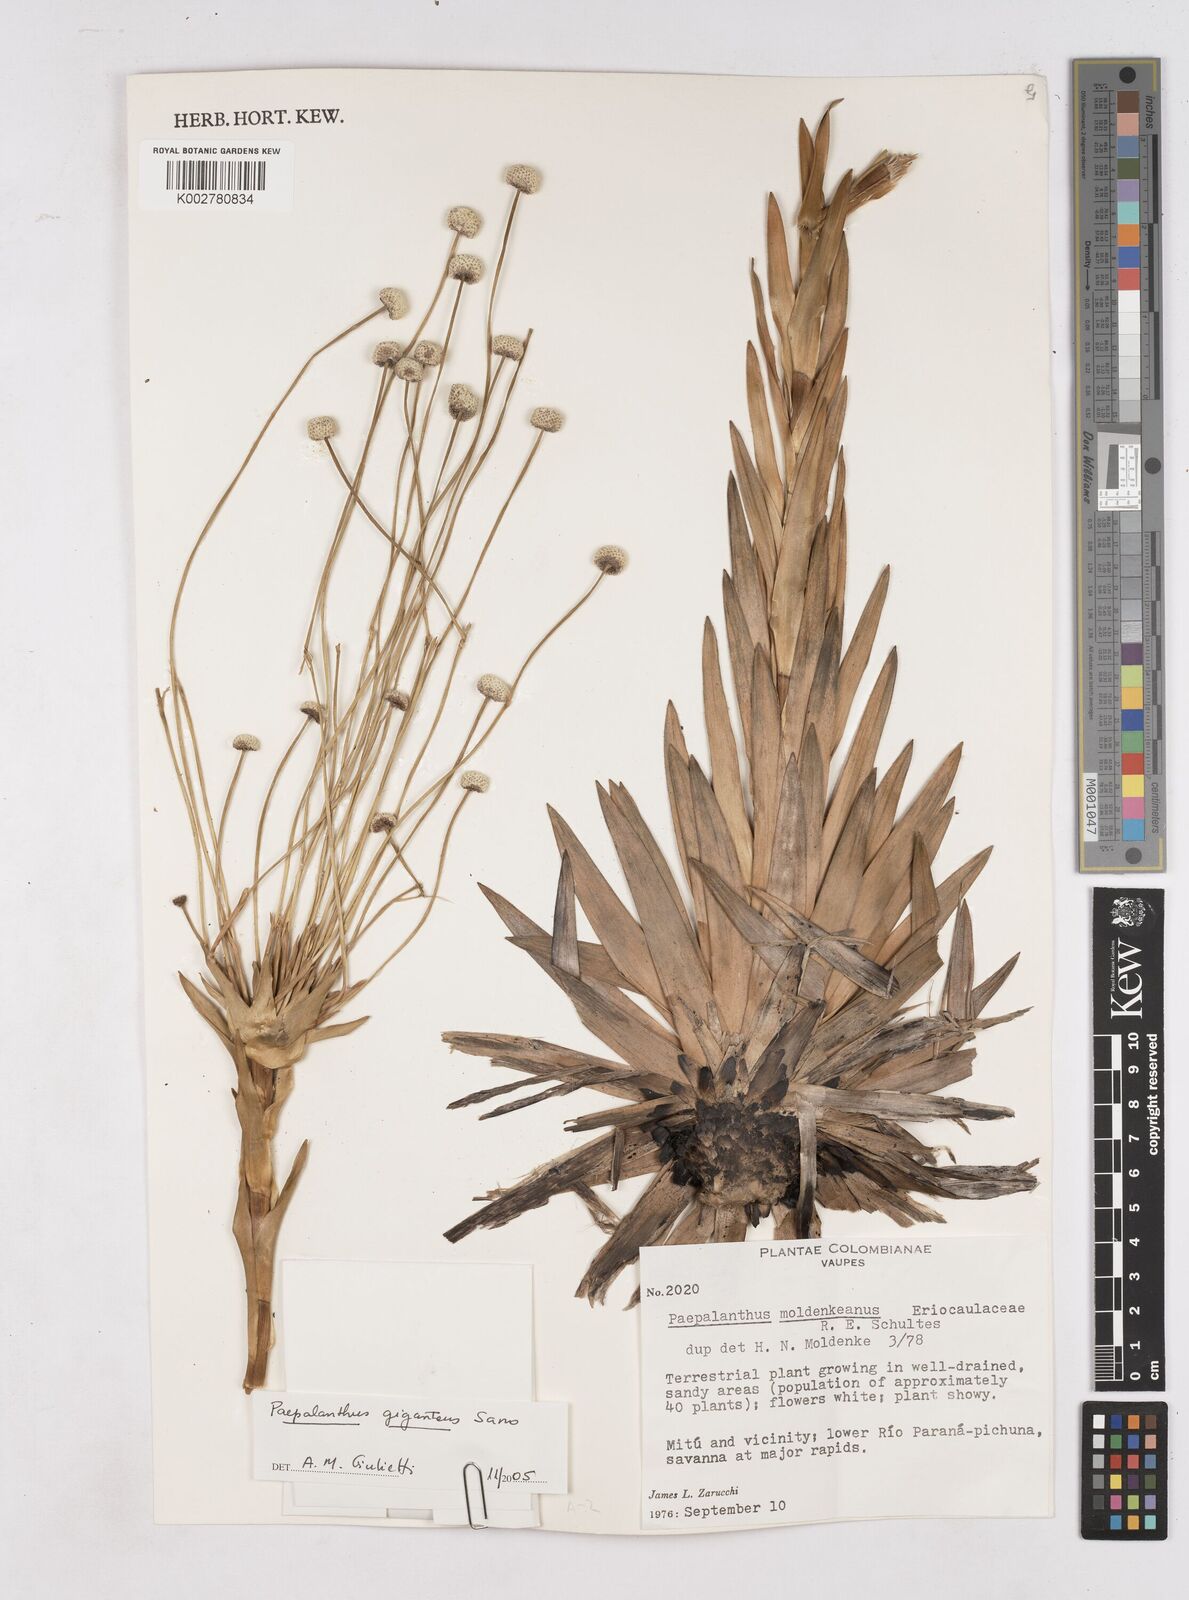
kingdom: Plantae
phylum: Tracheophyta
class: Liliopsida
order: Poales
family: Eriocaulaceae
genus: Paepalanthus
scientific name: Paepalanthus chiquitensis
